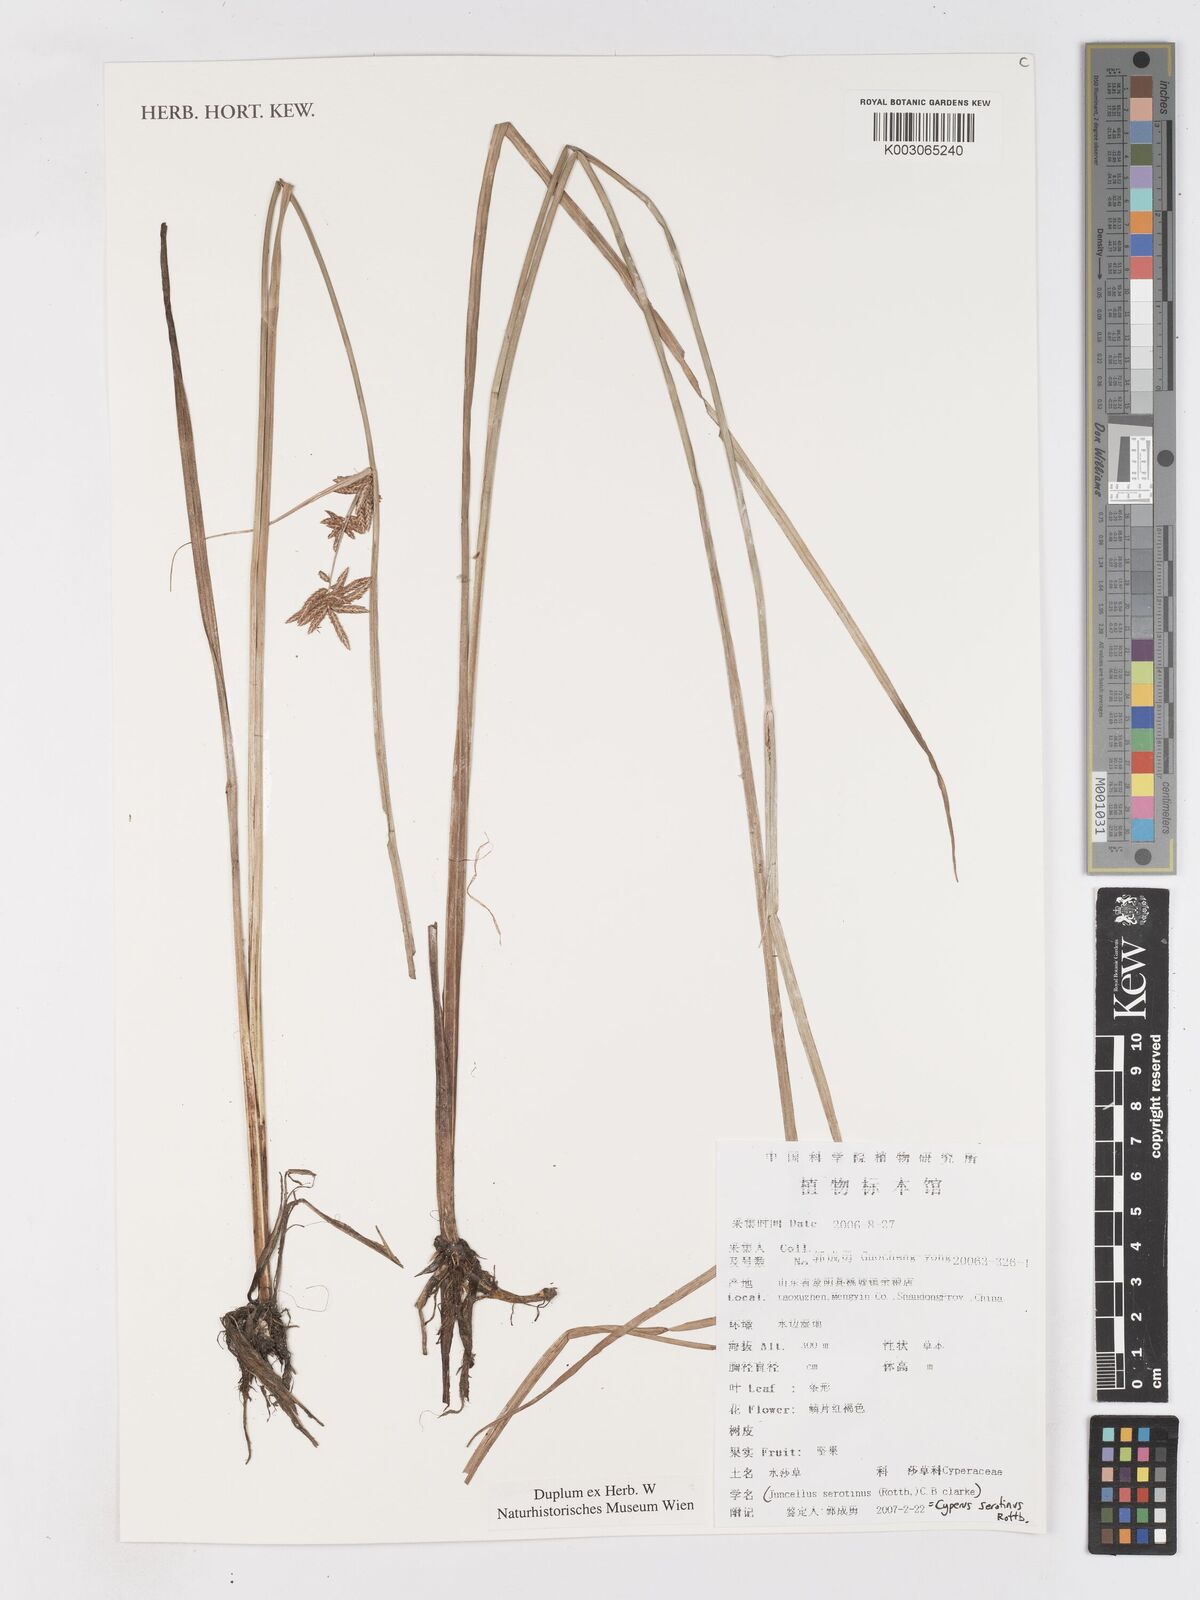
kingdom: Plantae
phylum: Tracheophyta
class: Liliopsida
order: Poales
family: Cyperaceae
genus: Cyperus
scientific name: Cyperus serotinus
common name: Tidalmarsh flatsedge
